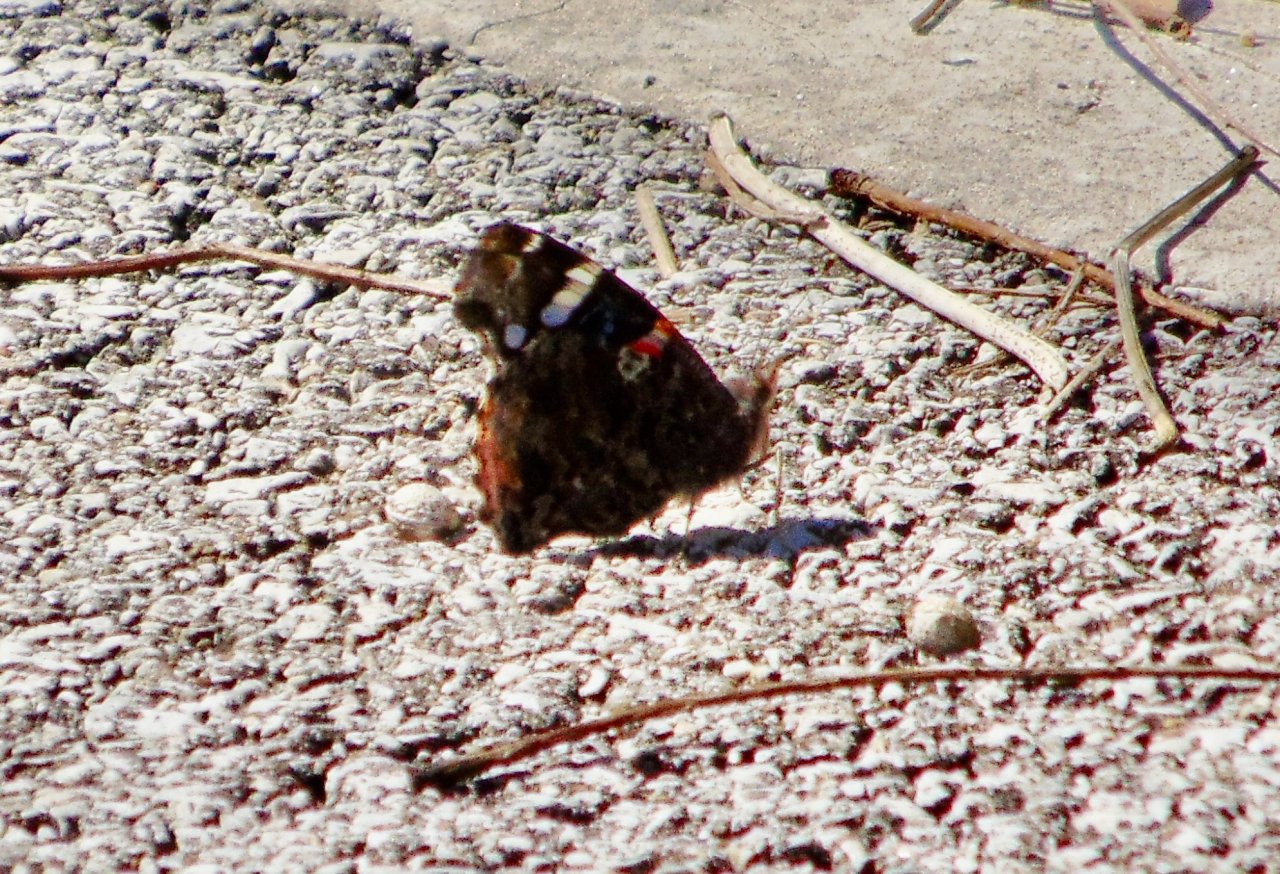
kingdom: Animalia
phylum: Arthropoda
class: Insecta
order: Lepidoptera
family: Nymphalidae
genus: Vanessa
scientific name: Vanessa atalanta
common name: Red Admiral
